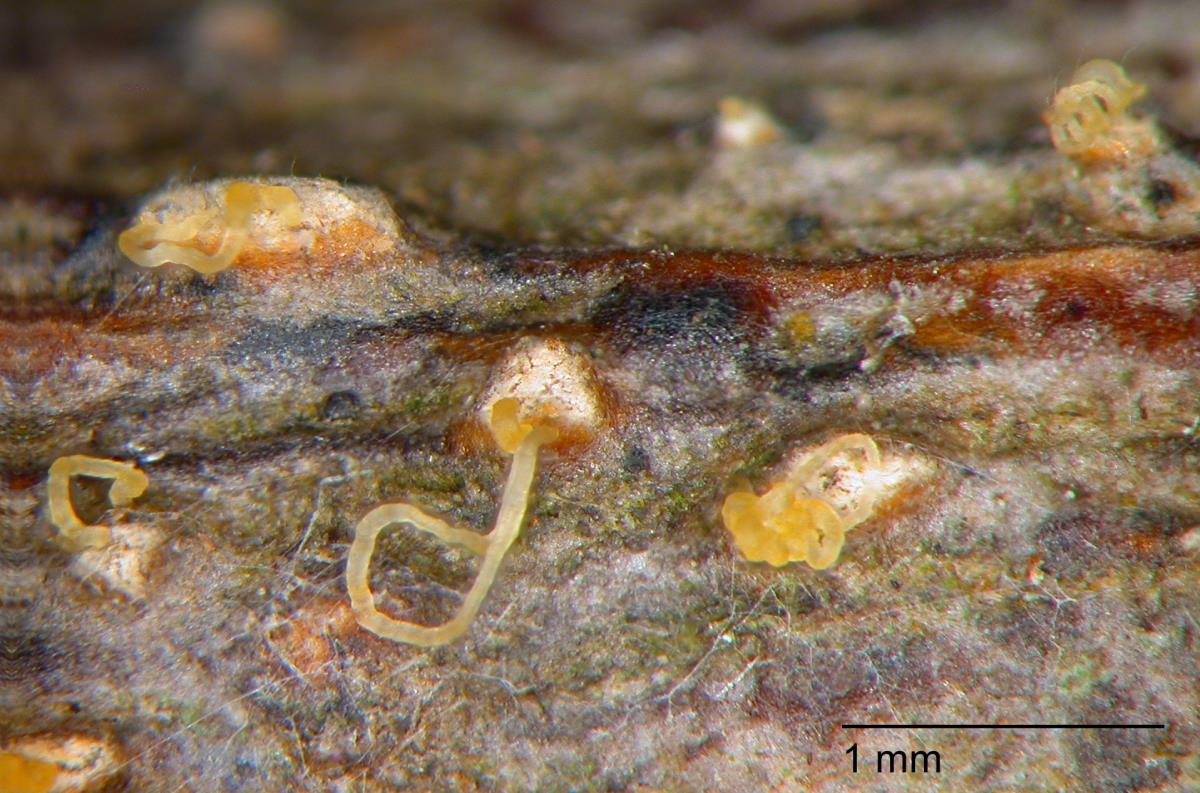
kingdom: Fungi
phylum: Ascomycota
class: Sordariomycetes
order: Diaporthales
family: Diaporthaceae
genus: Diaporthe
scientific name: Diaporthe sophorae
